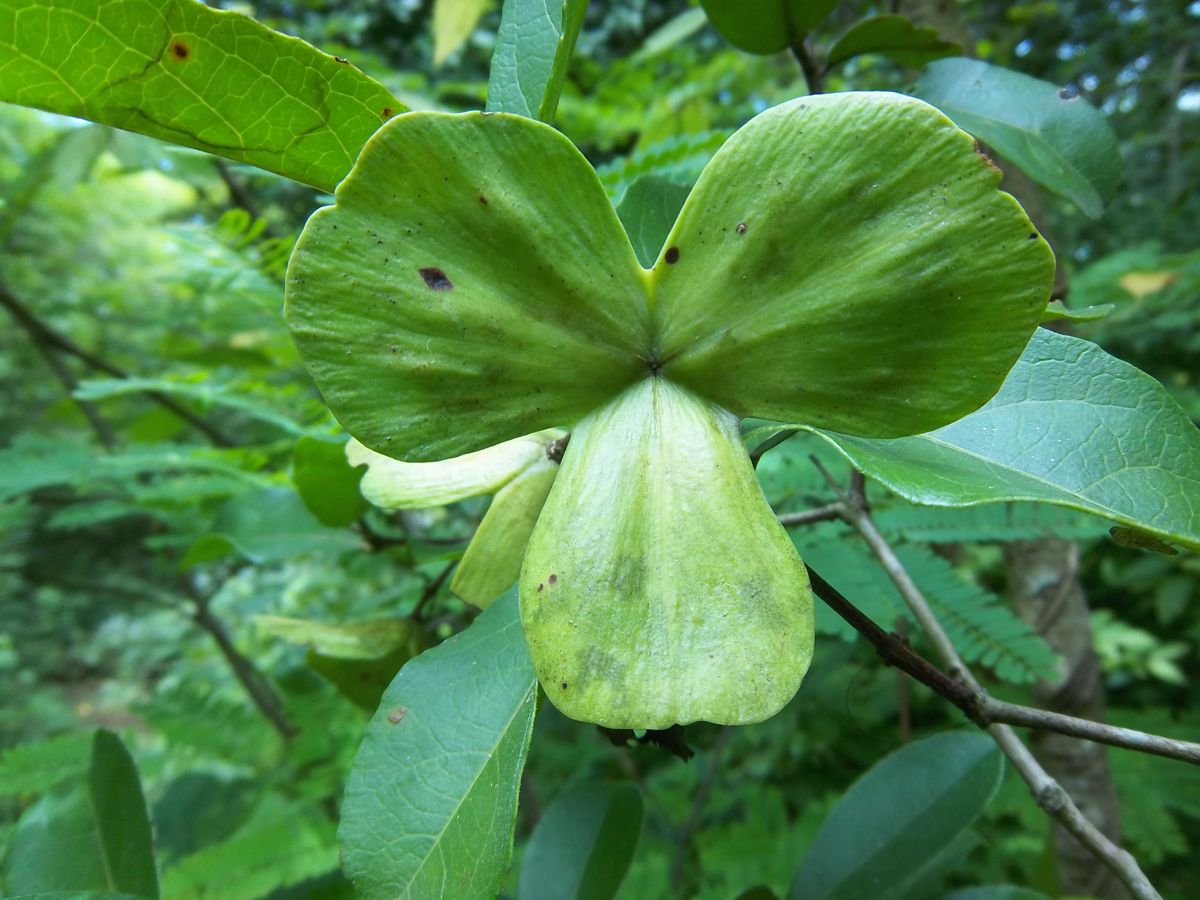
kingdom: Plantae
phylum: Tracheophyta
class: Magnoliopsida
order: Celastrales
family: Celastraceae
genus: Semialarium
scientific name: Semialarium mexicanum
